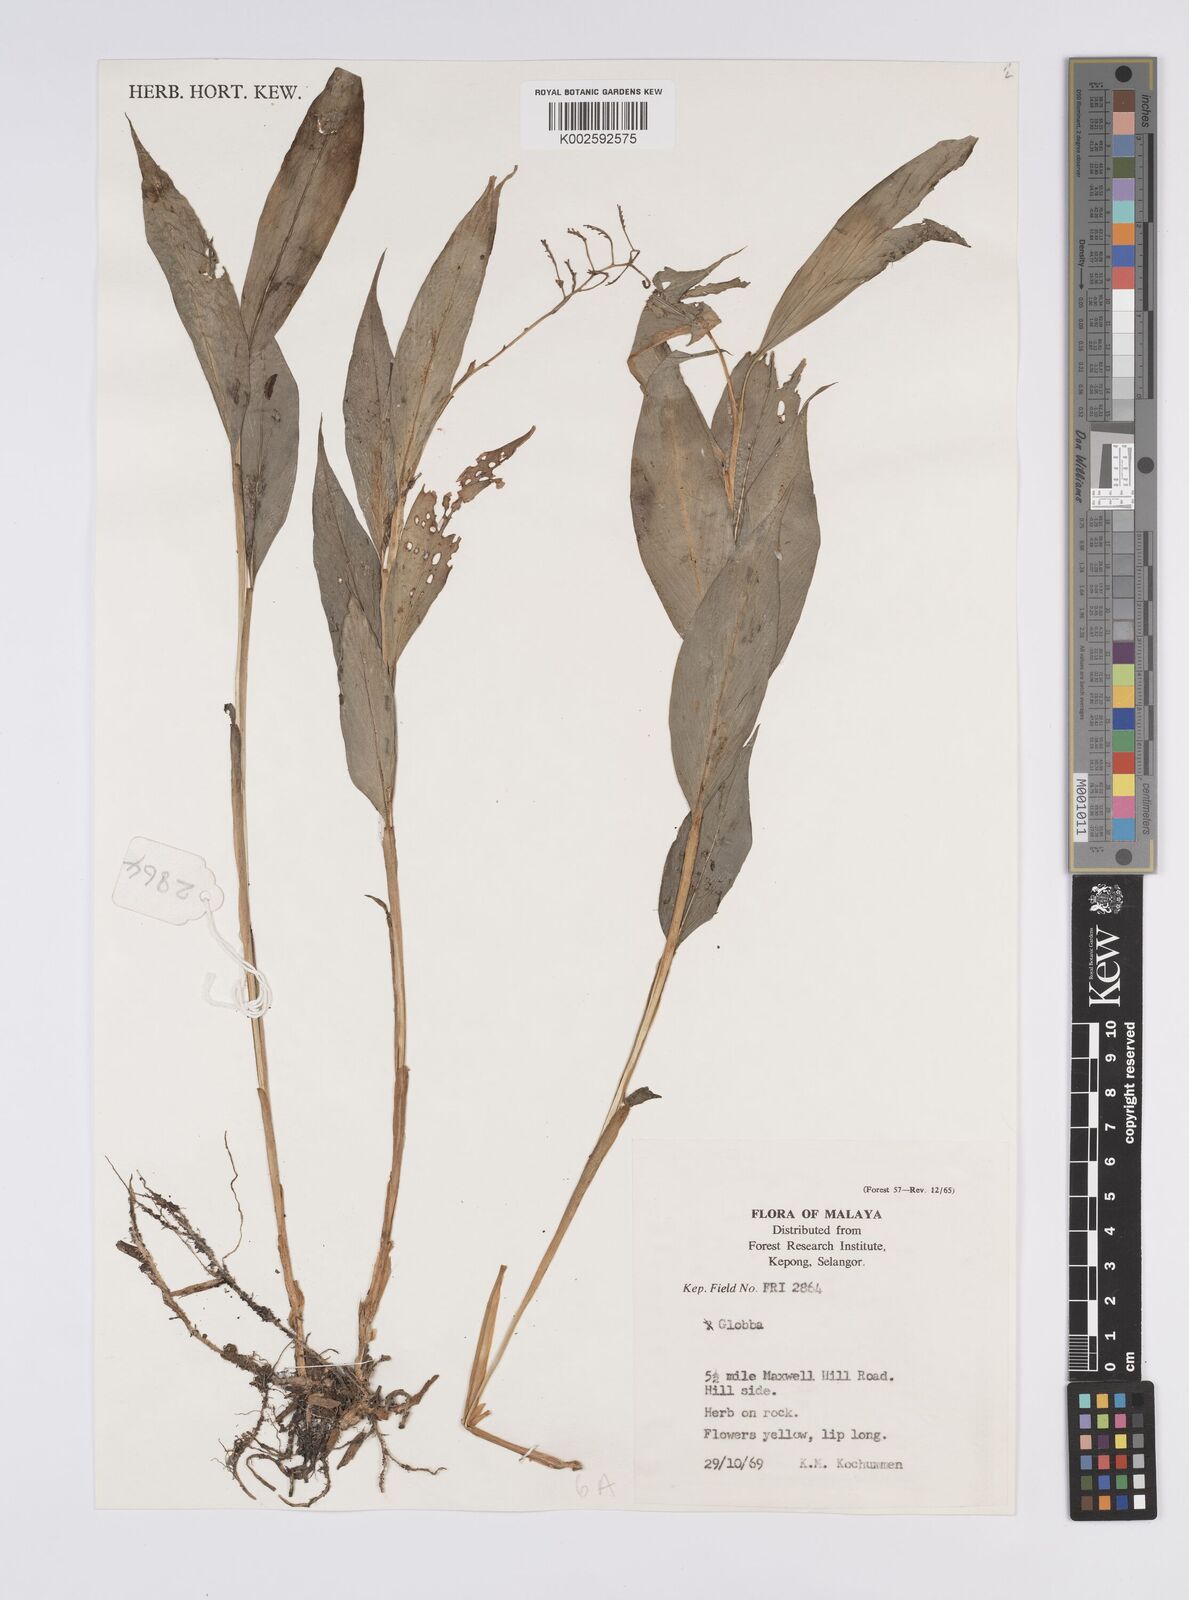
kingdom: Plantae
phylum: Tracheophyta
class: Liliopsida
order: Zingiberales
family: Zingiberaceae
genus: Globba
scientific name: Globba
